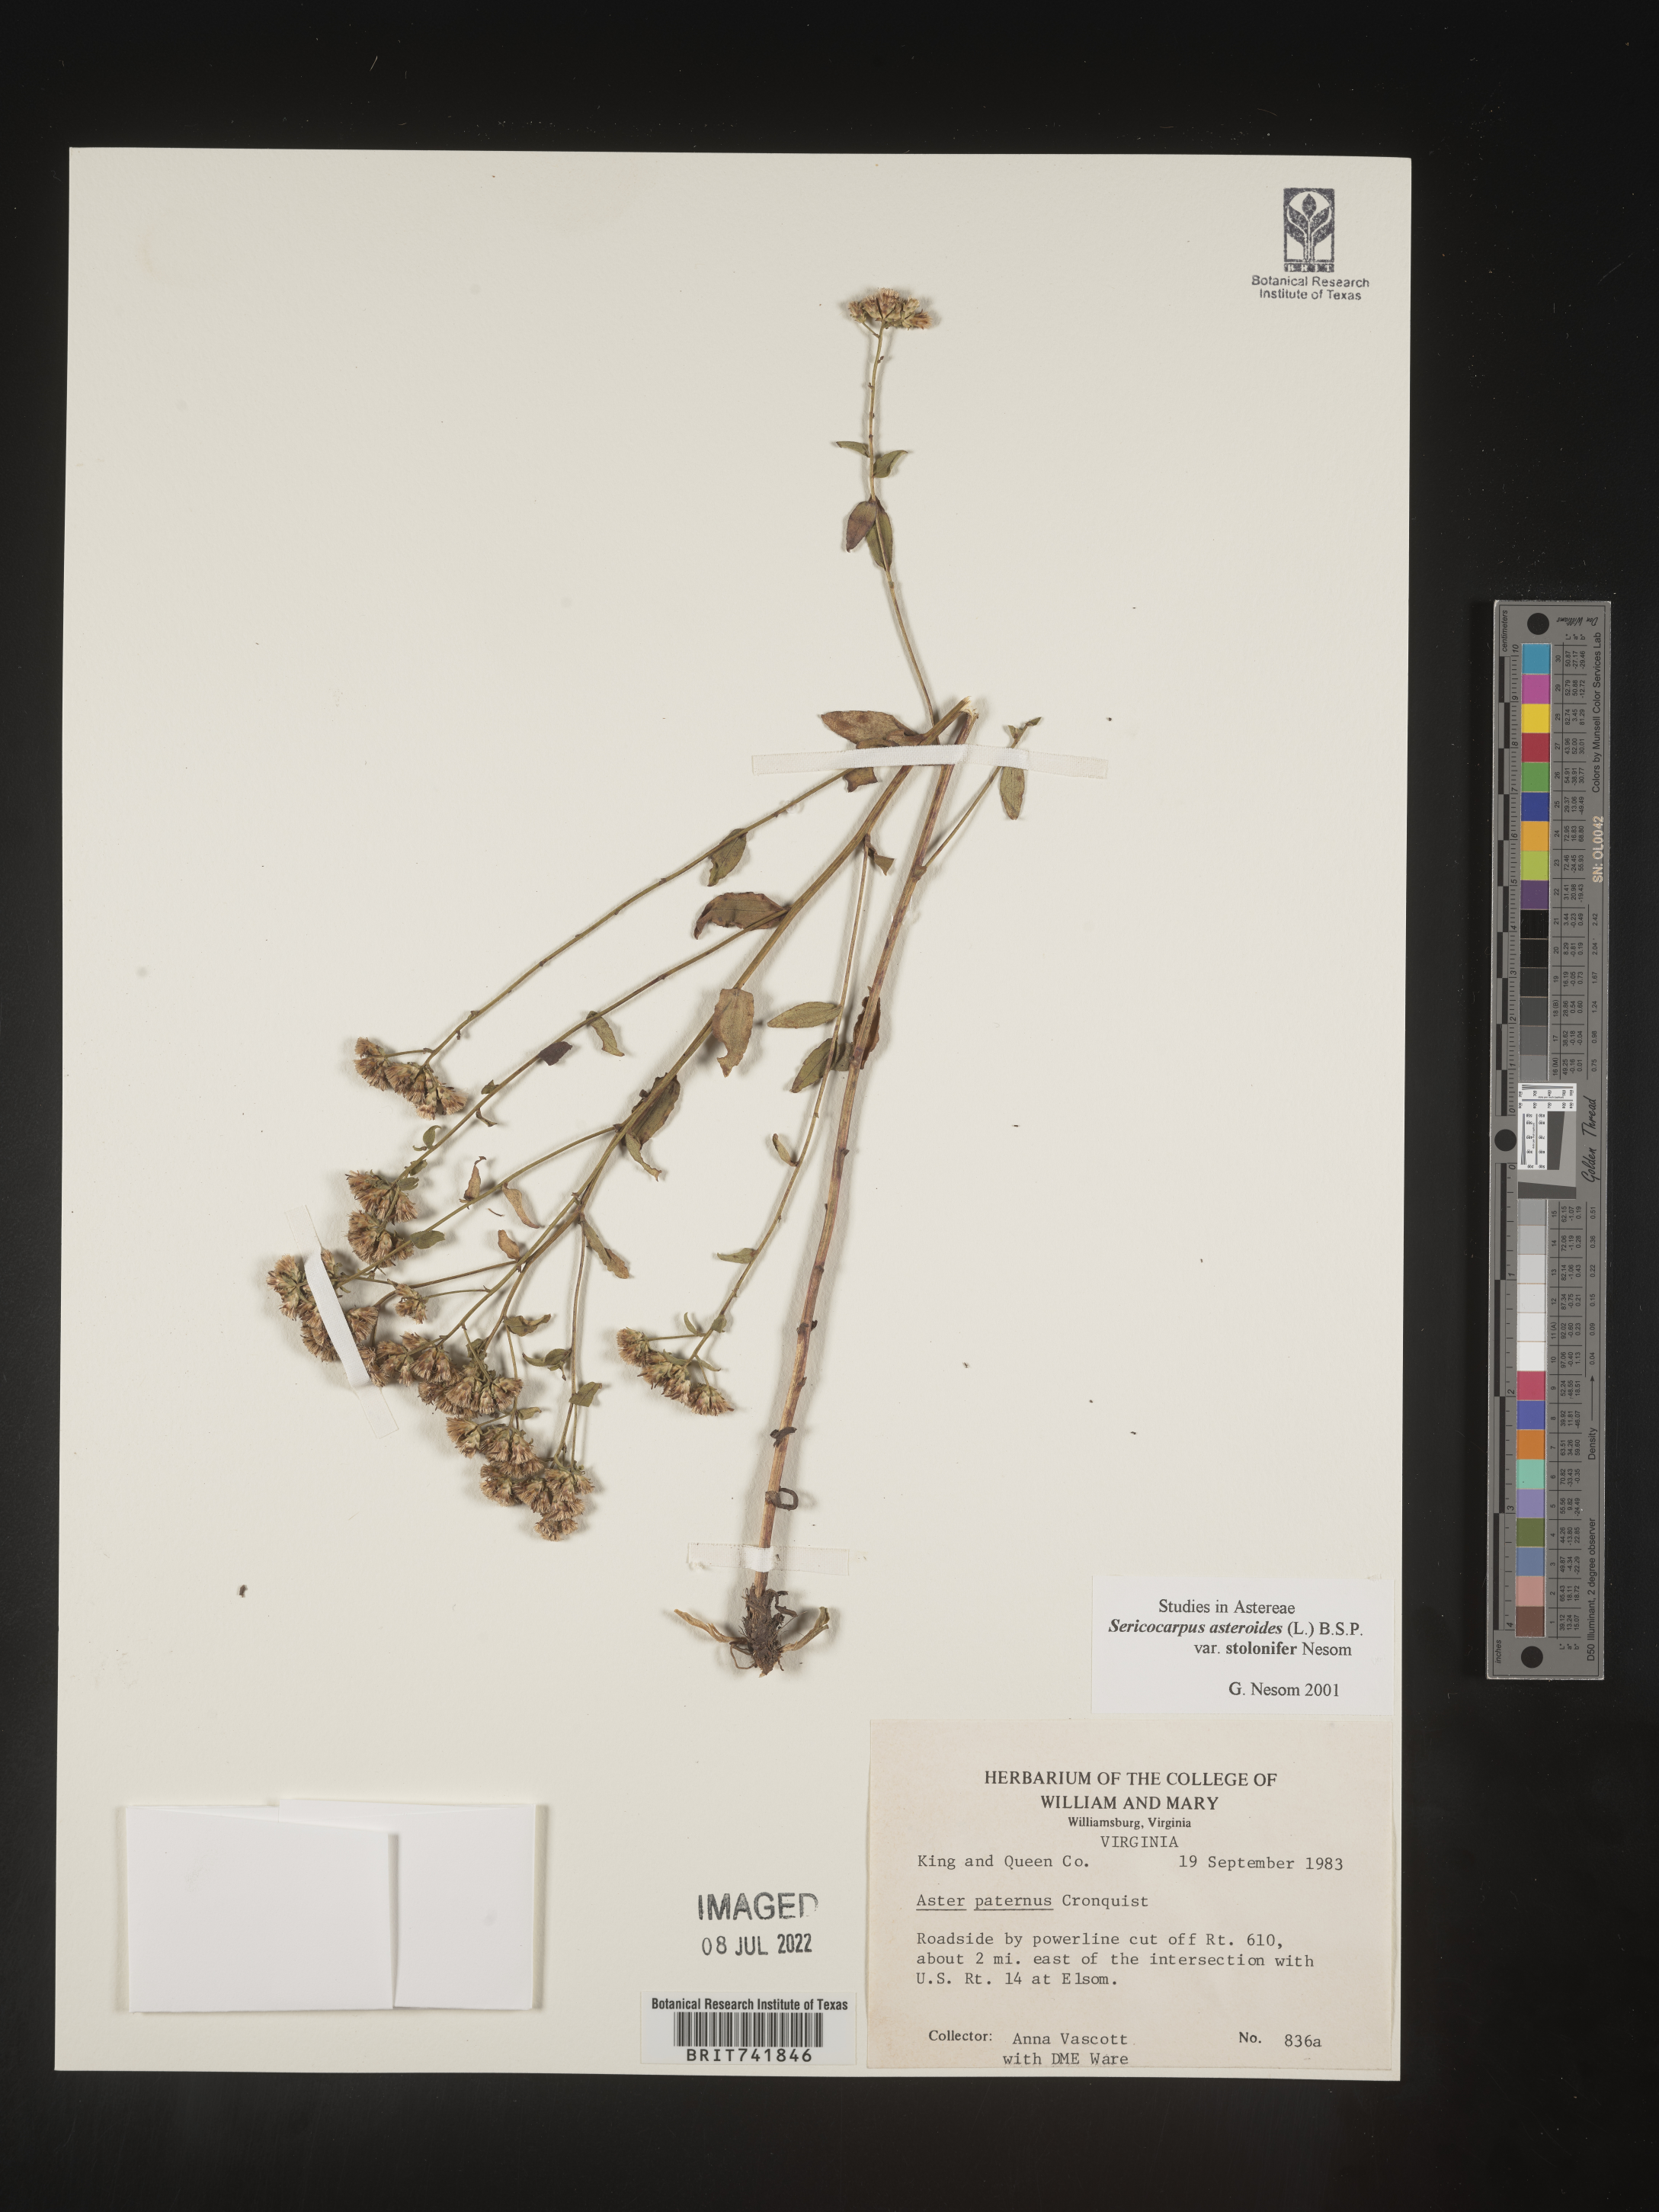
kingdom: Plantae
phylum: Tracheophyta
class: Magnoliopsida
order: Asterales
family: Asteraceae
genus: Sericocarpus
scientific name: Sericocarpus asteroides
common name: Toothed white-top aster
